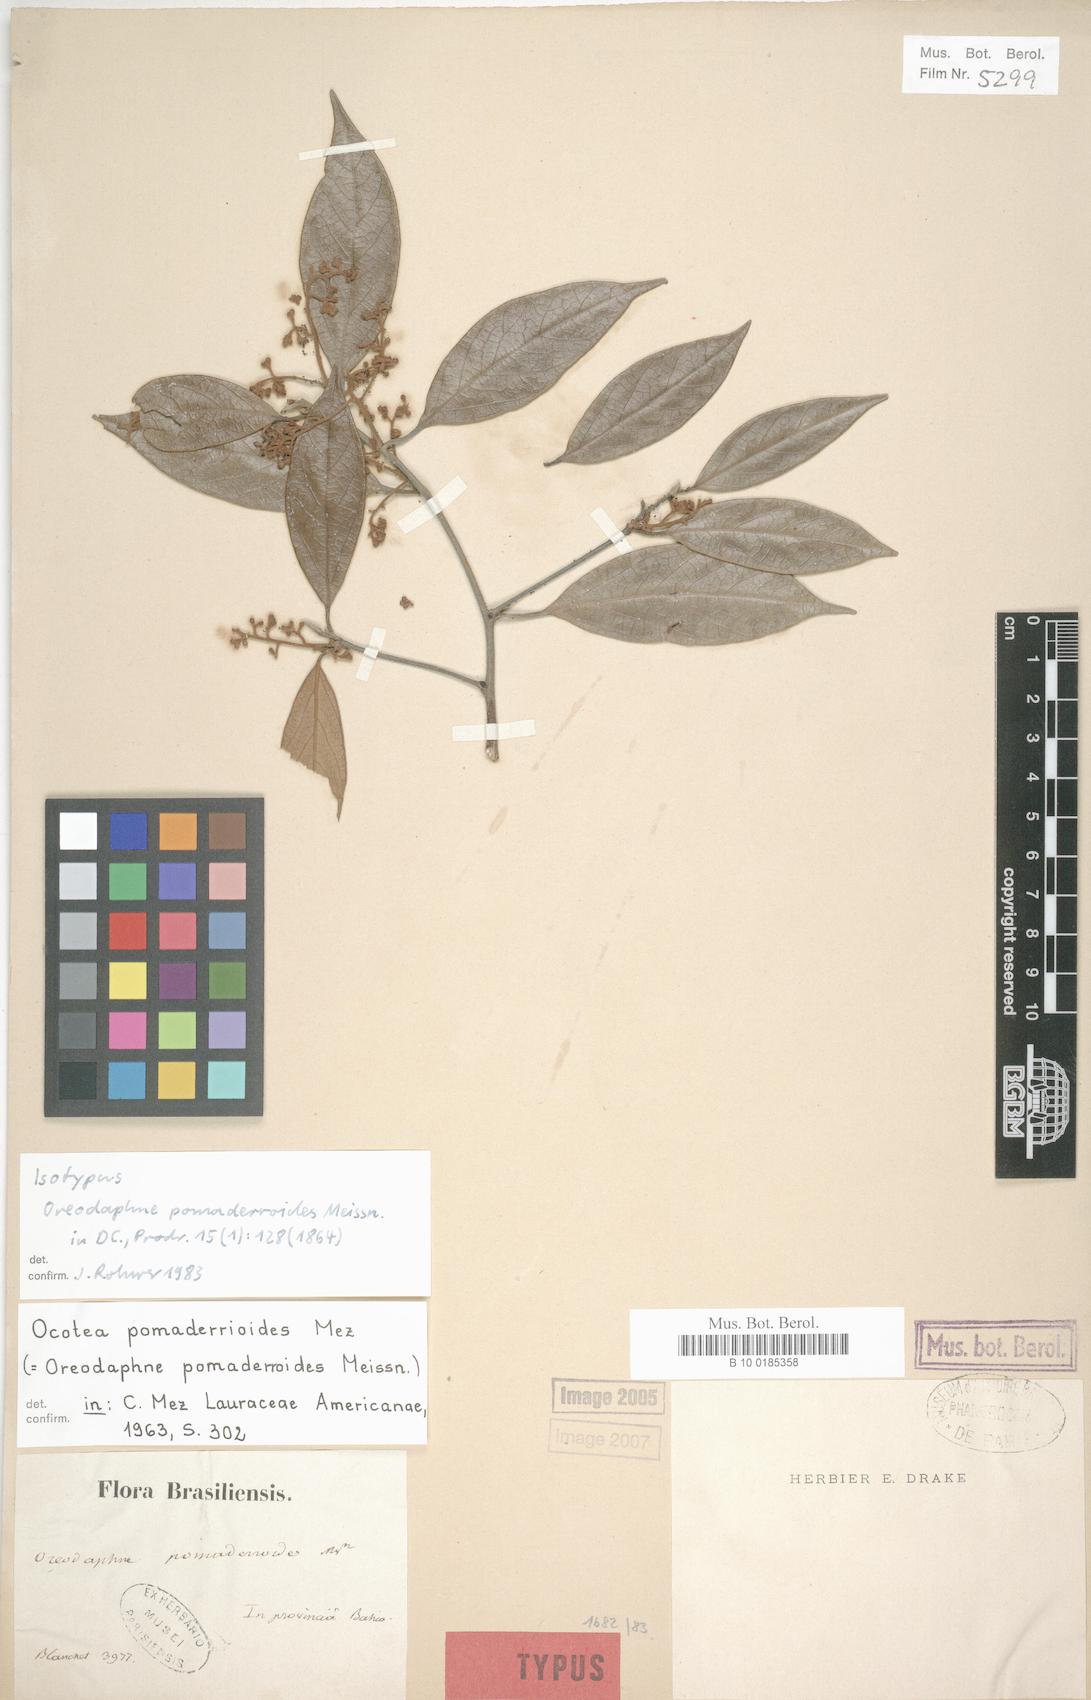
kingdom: Plantae
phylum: Tracheophyta
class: Magnoliopsida
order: Laurales
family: Lauraceae
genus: Ocotea
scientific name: Ocotea pomaderrioides
